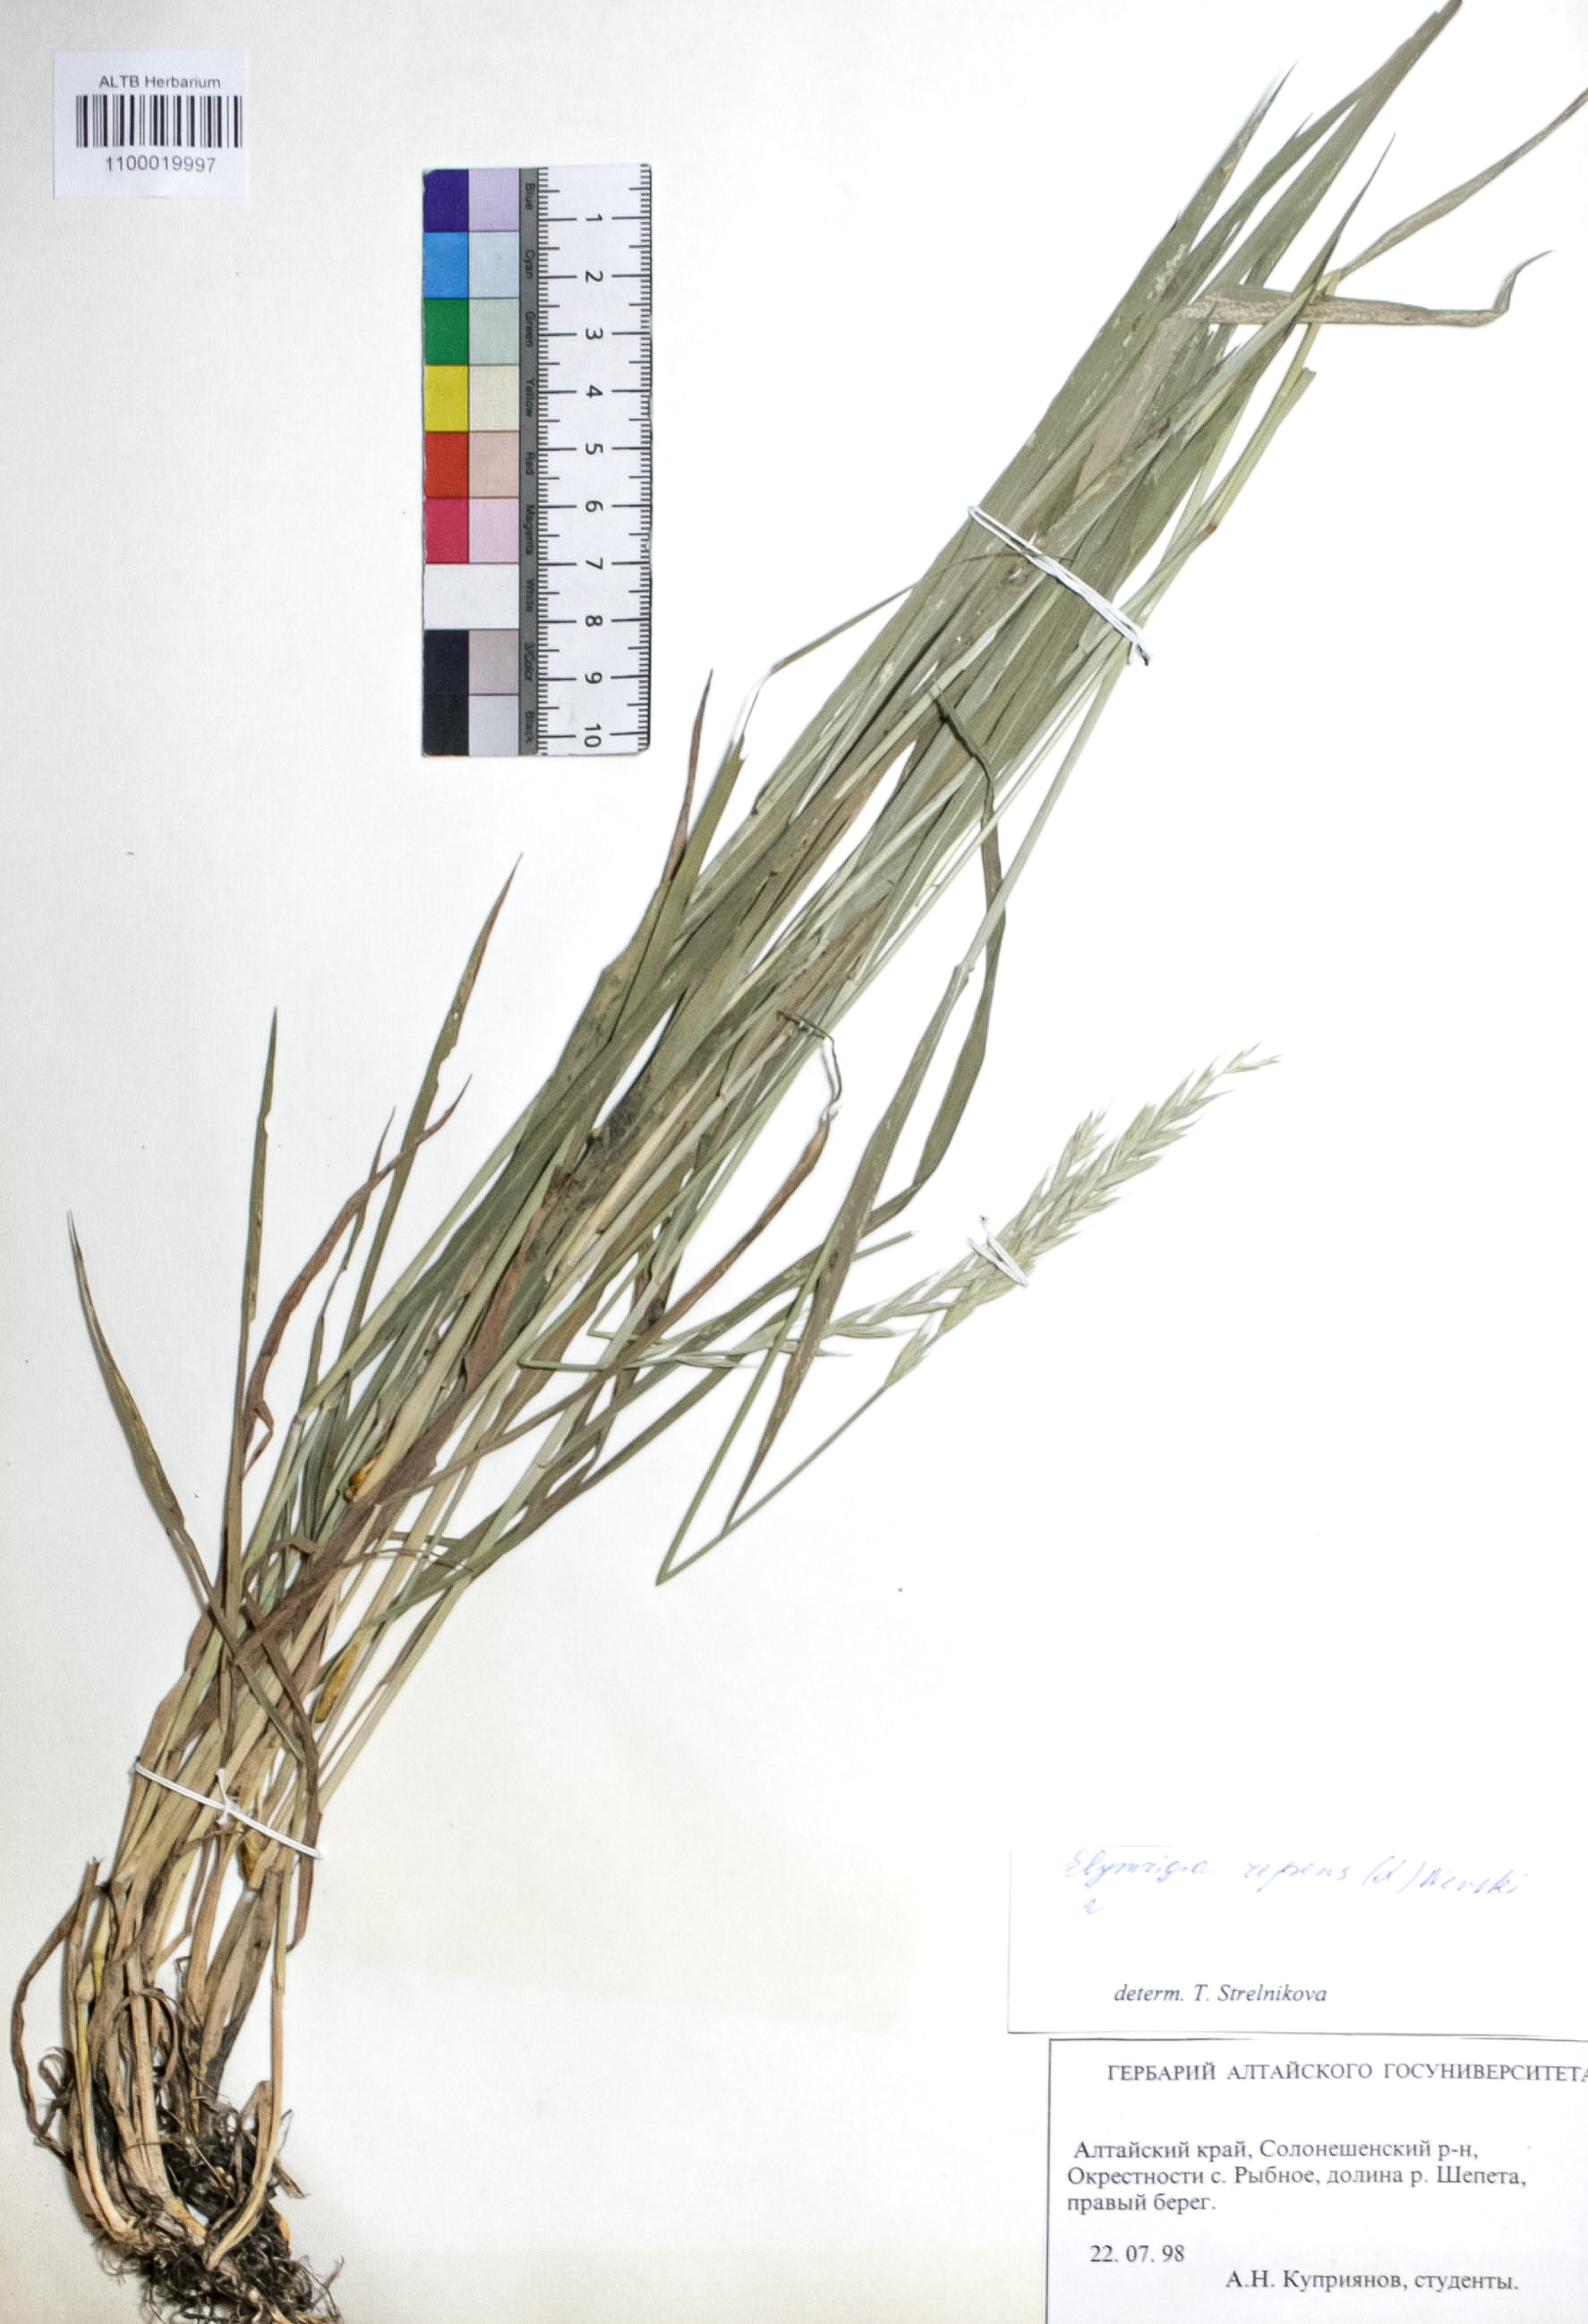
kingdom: Plantae
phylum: Tracheophyta
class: Liliopsida
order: Poales
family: Poaceae
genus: Elymus
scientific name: Elymus repens
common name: Quackgrass
